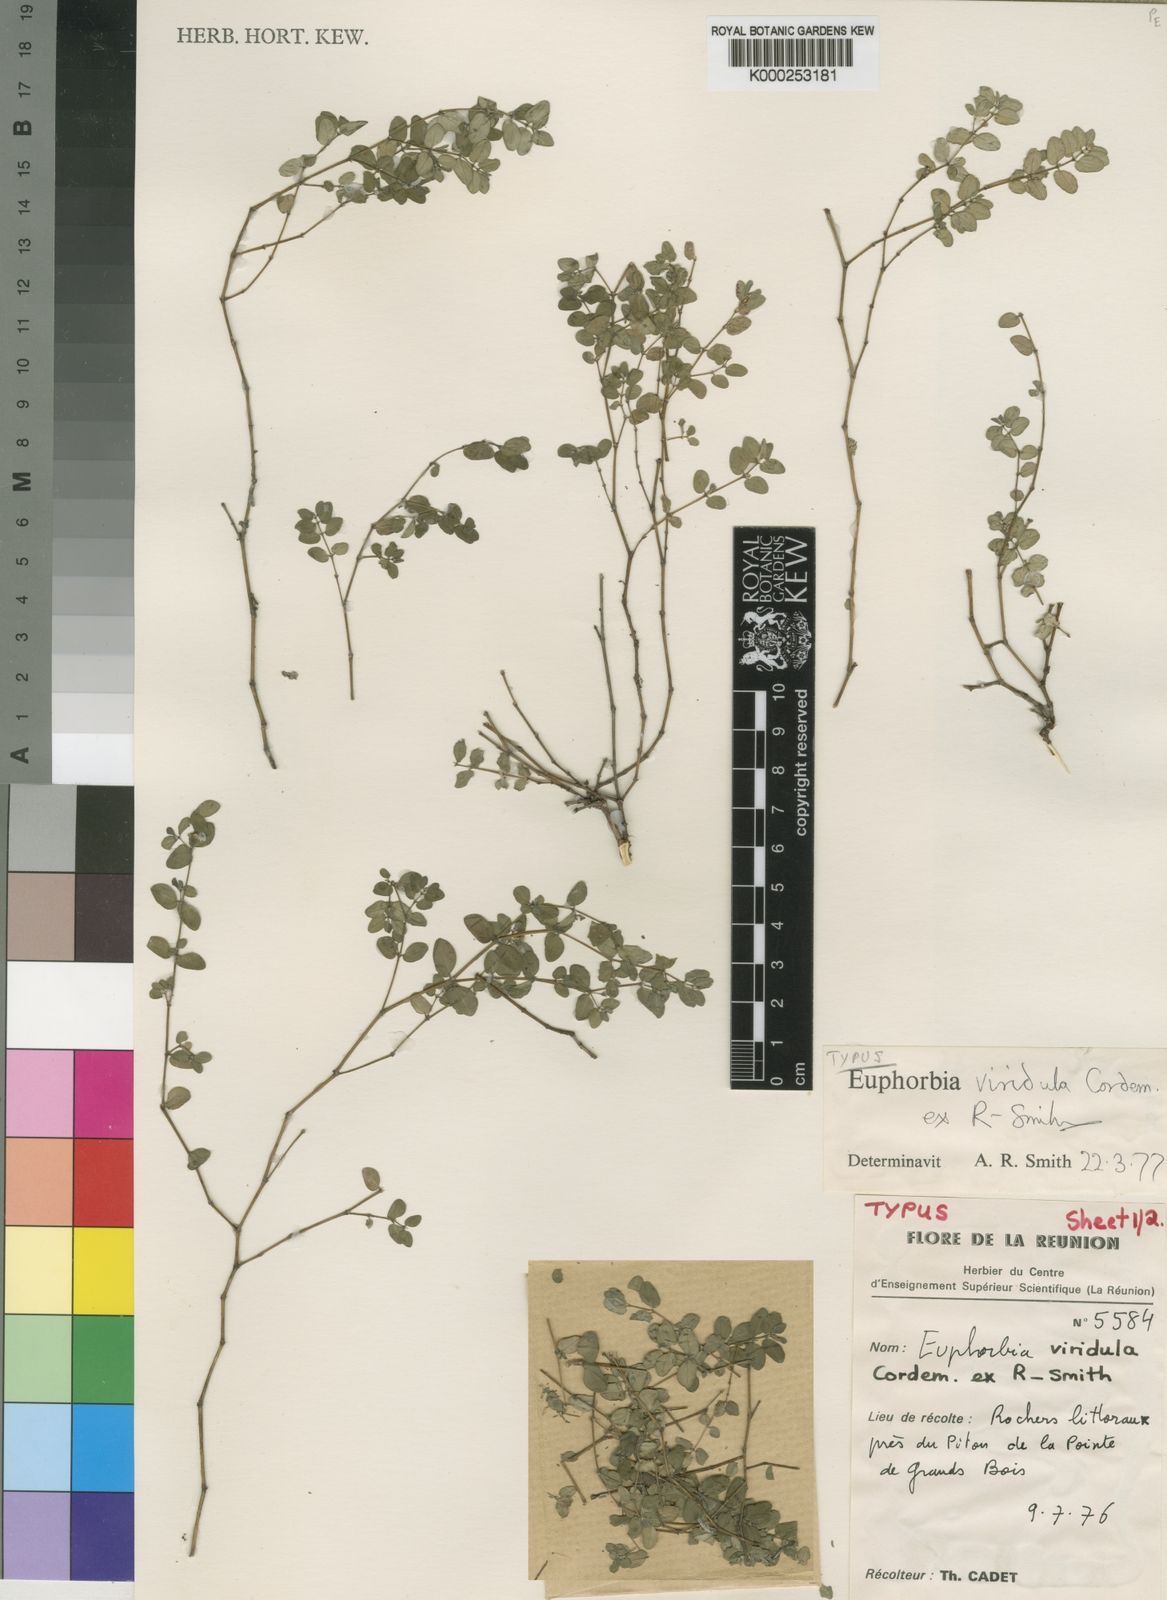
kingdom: Plantae
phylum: Tracheophyta
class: Magnoliopsida
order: Malpighiales
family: Euphorbiaceae
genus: Euphorbia
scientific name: Euphorbia viridula
